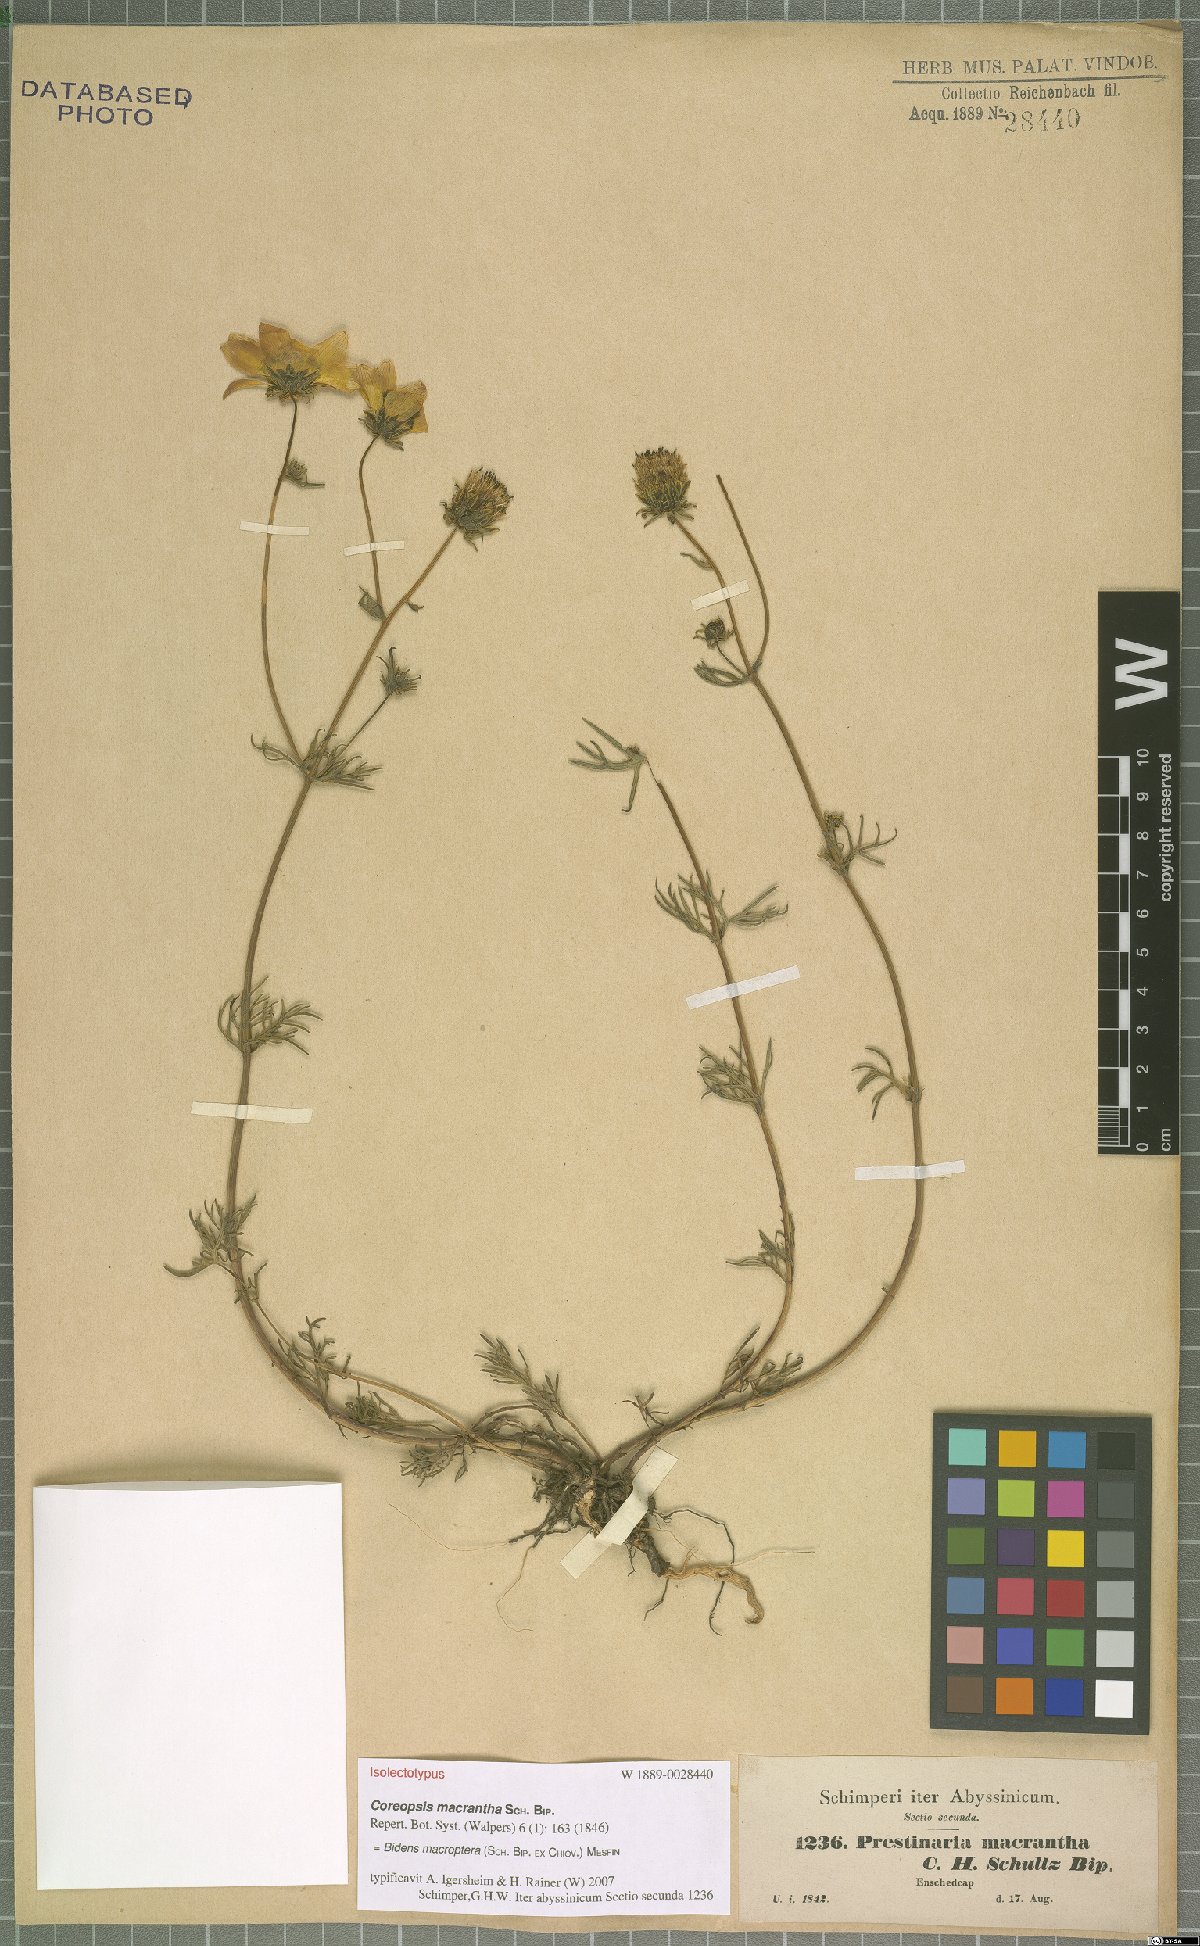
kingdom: Plantae
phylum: Tracheophyta
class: Magnoliopsida
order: Asterales
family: Asteraceae
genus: Bidens
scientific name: Bidens macroptera
